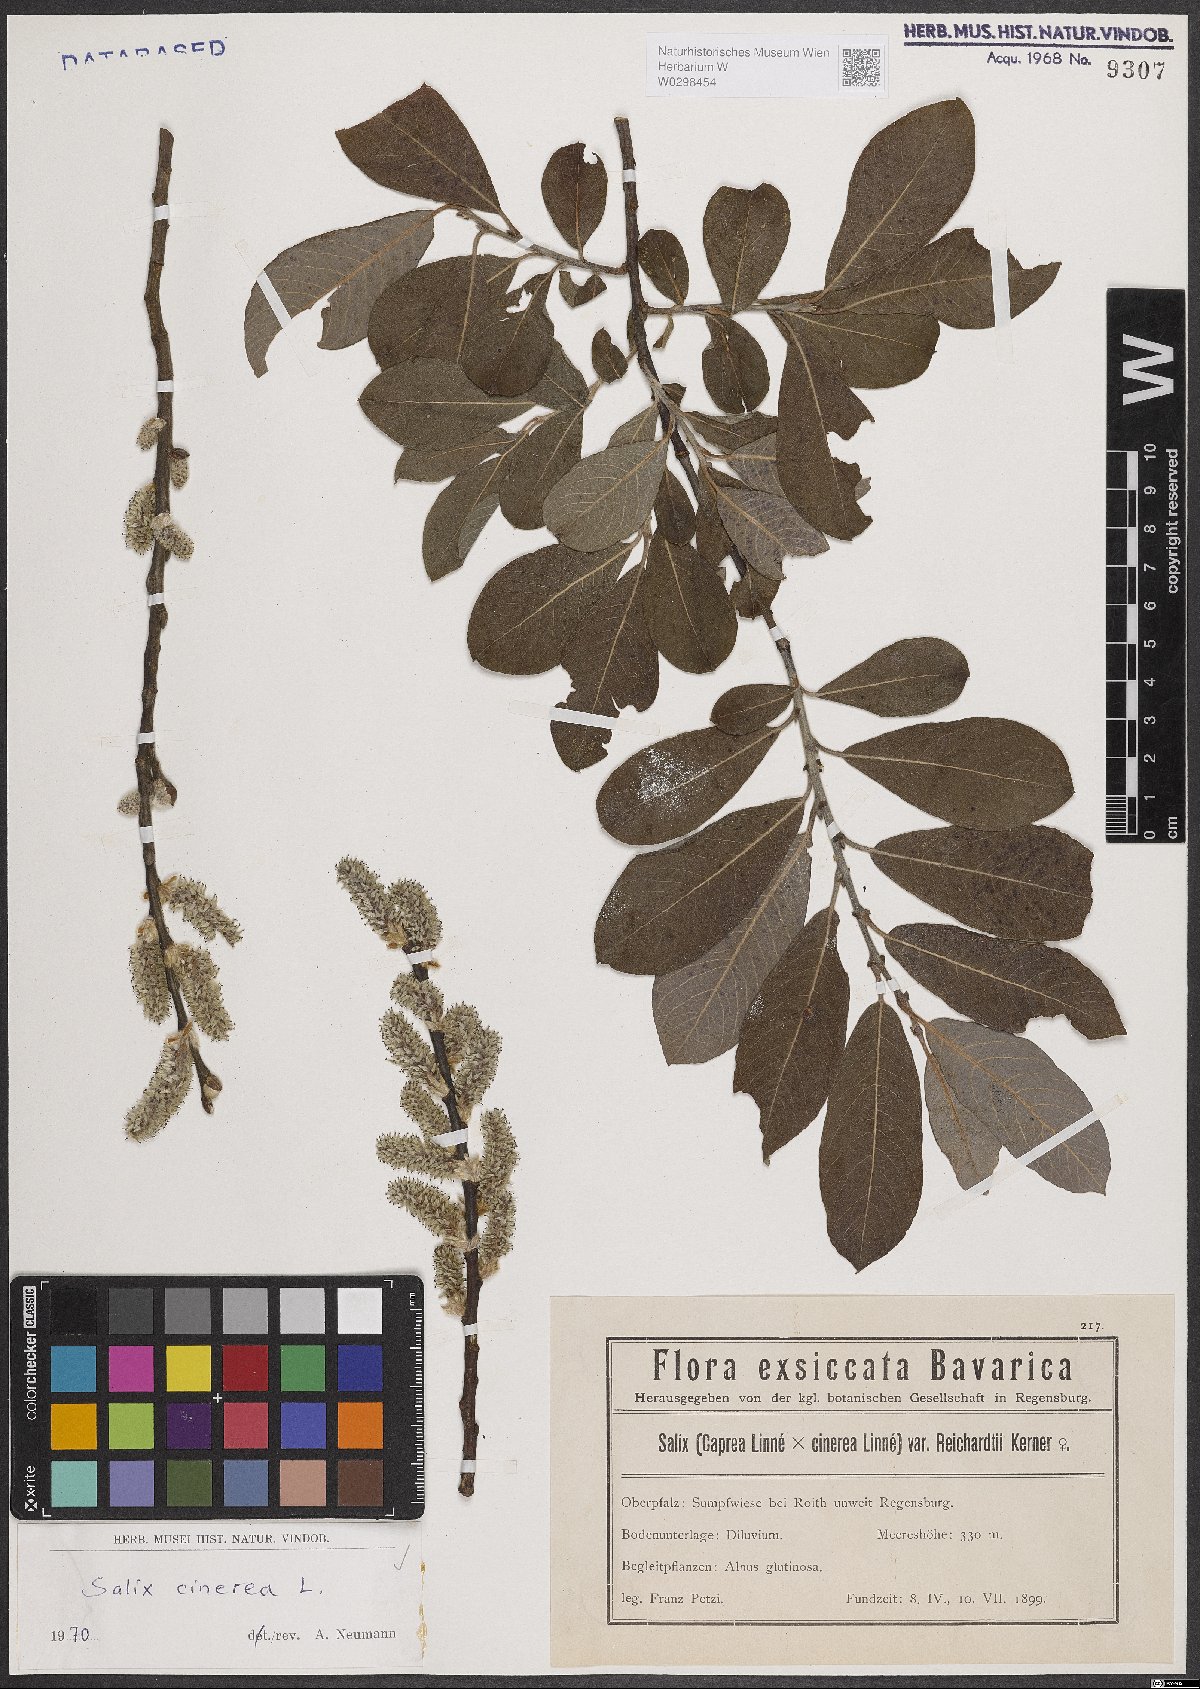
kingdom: Plantae
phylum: Tracheophyta
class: Magnoliopsida
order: Malpighiales
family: Salicaceae
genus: Salix
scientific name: Salix cinerea
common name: Common sallow
